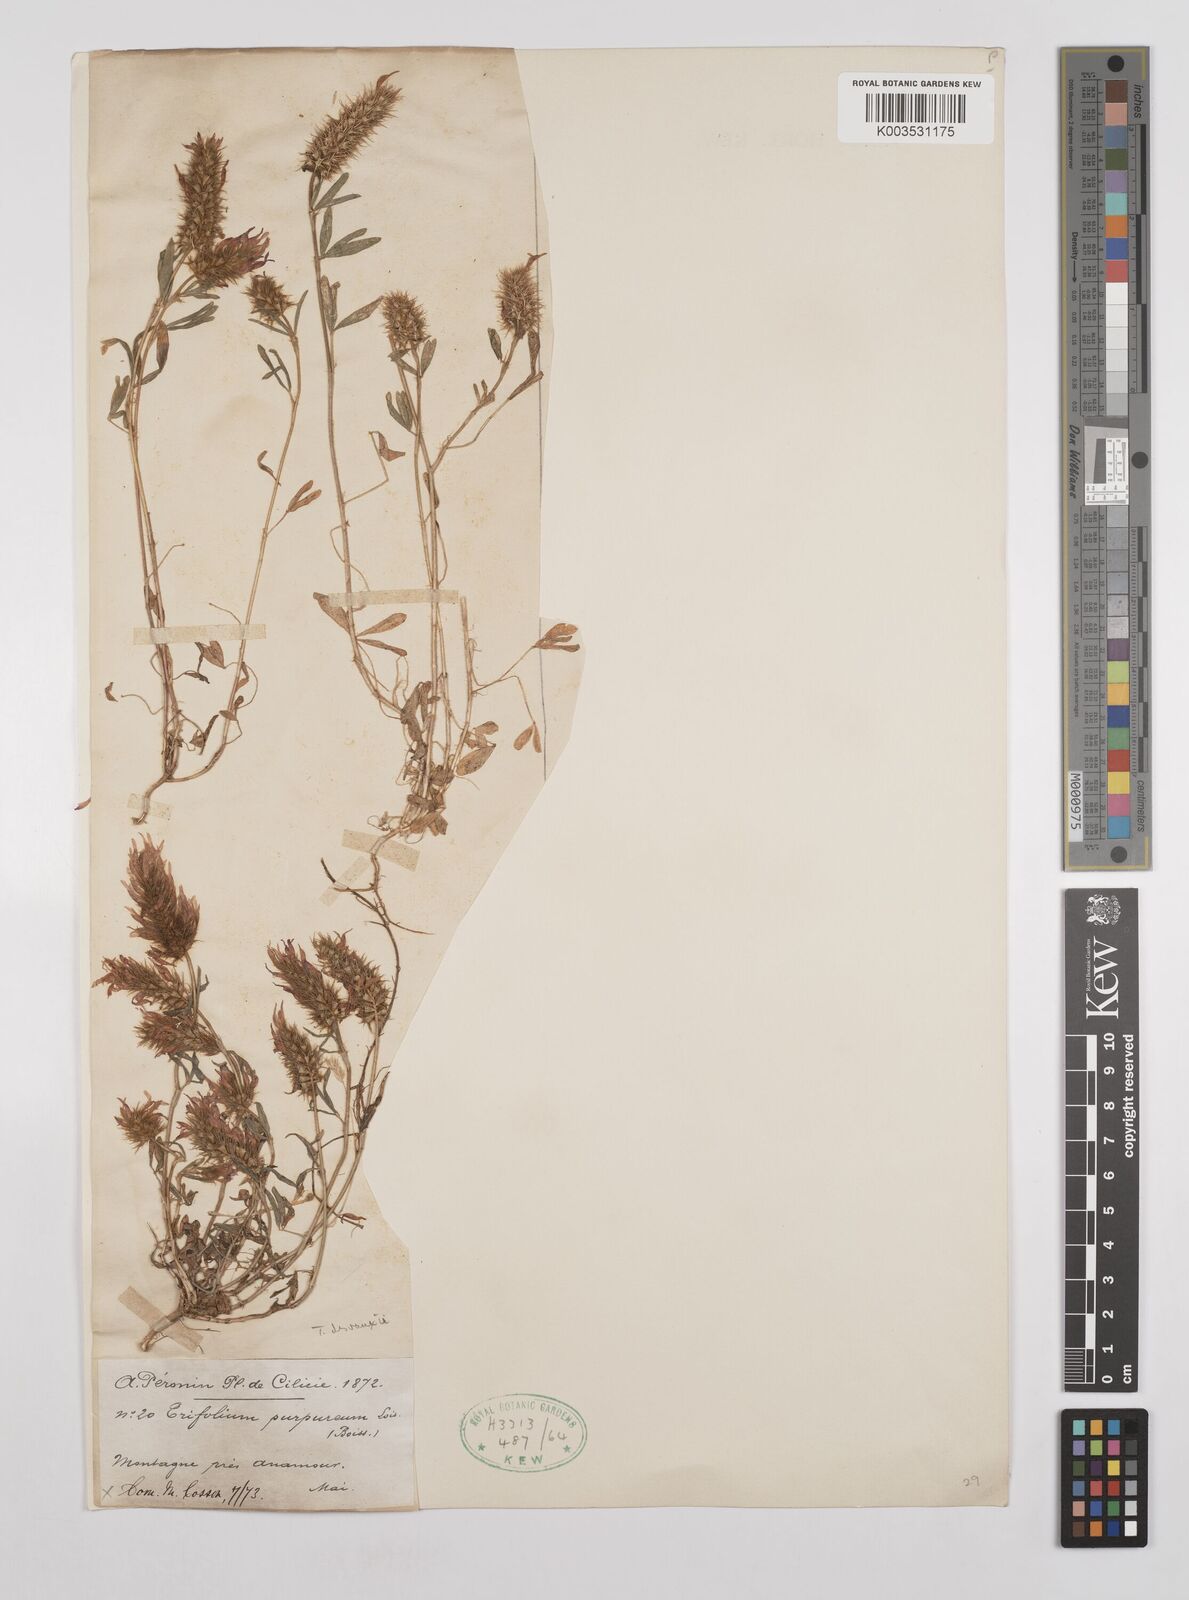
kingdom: Plantae
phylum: Tracheophyta
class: Magnoliopsida
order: Fabales
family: Fabaceae
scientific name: Fabaceae
